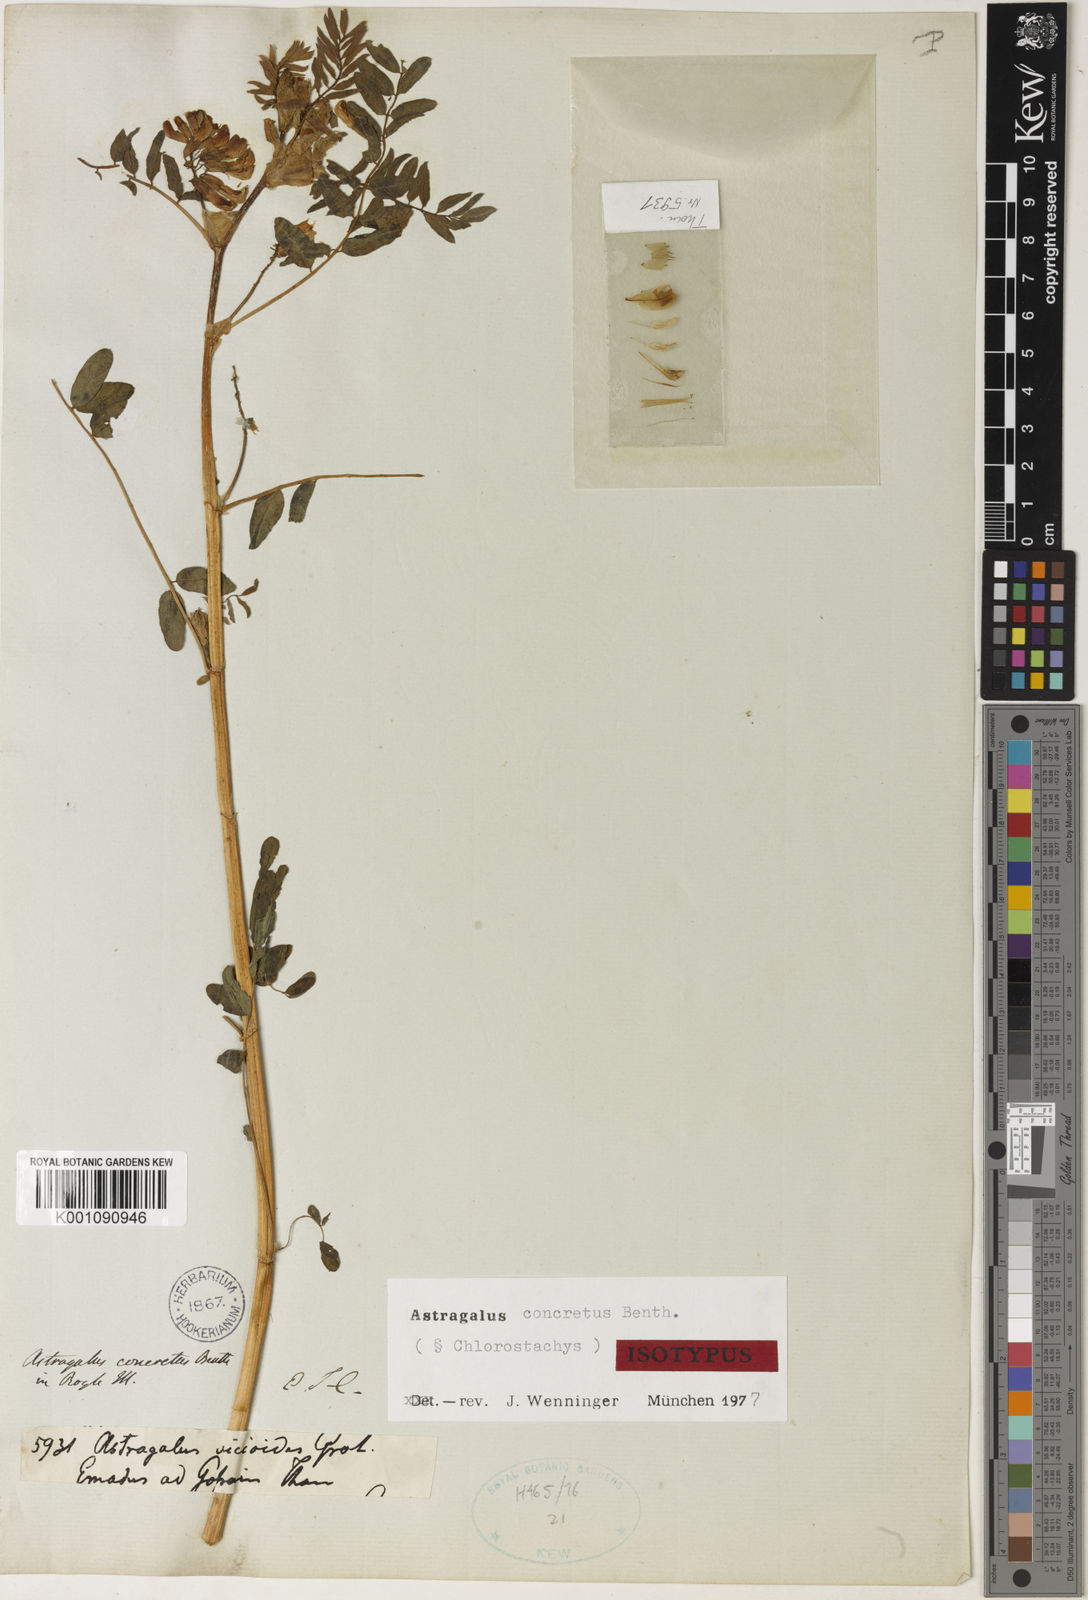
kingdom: Plantae
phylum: Tracheophyta
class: Magnoliopsida
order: Fabales
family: Fabaceae
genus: Astragalus
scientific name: Astragalus
